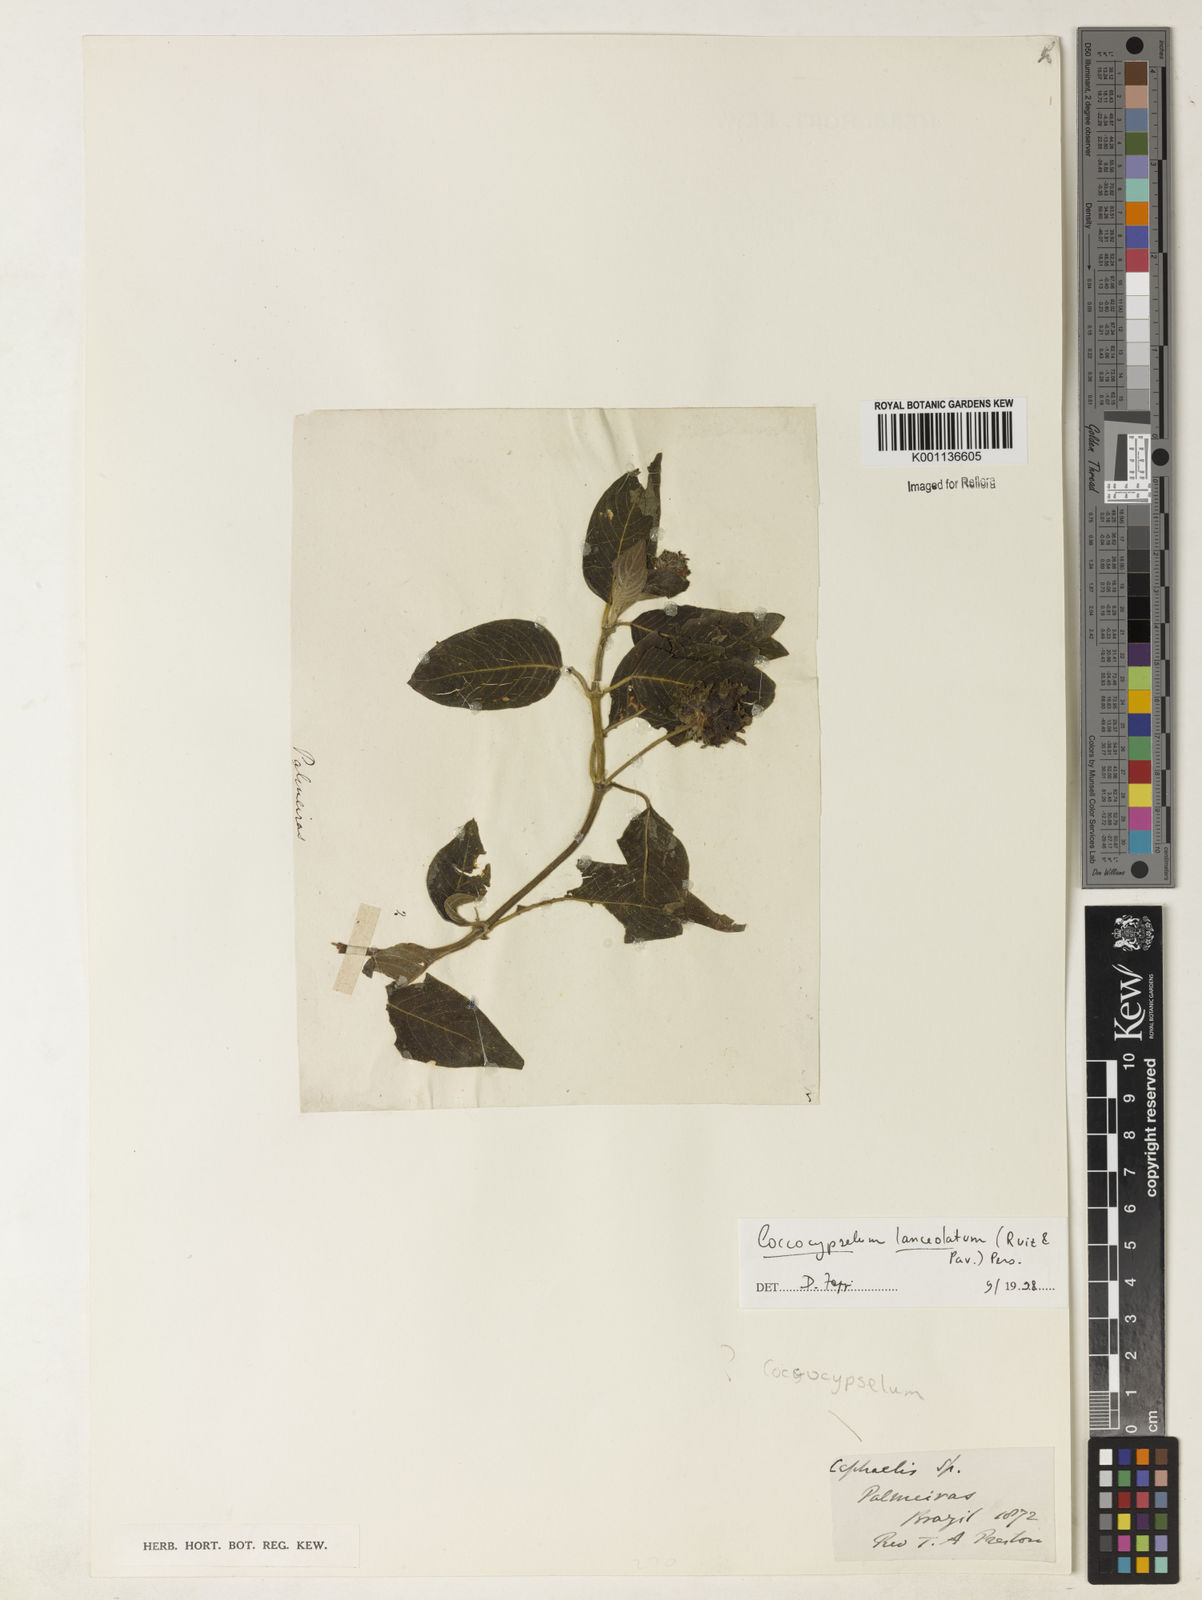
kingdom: Plantae
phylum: Tracheophyta
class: Magnoliopsida
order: Gentianales
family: Rubiaceae
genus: Coccocypselum
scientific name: Coccocypselum lanceolatum
